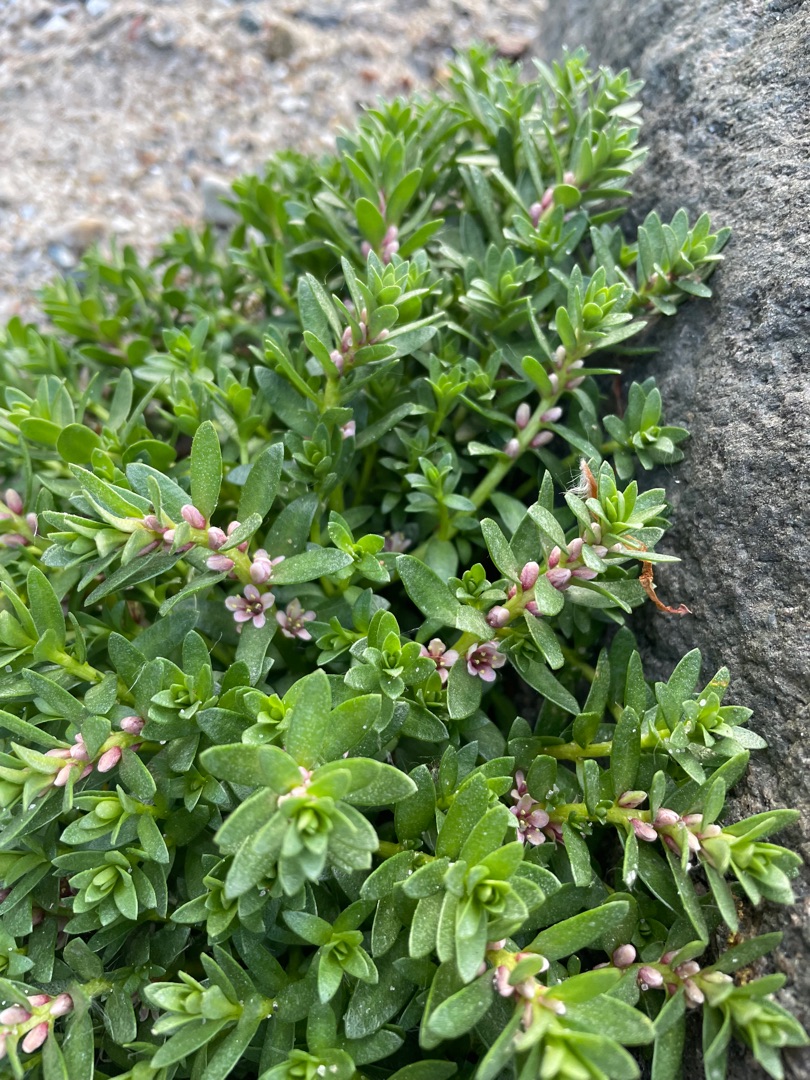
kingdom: Plantae
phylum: Tracheophyta
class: Magnoliopsida
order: Ericales
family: Primulaceae
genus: Lysimachia
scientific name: Lysimachia maritima
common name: Sandkryb
